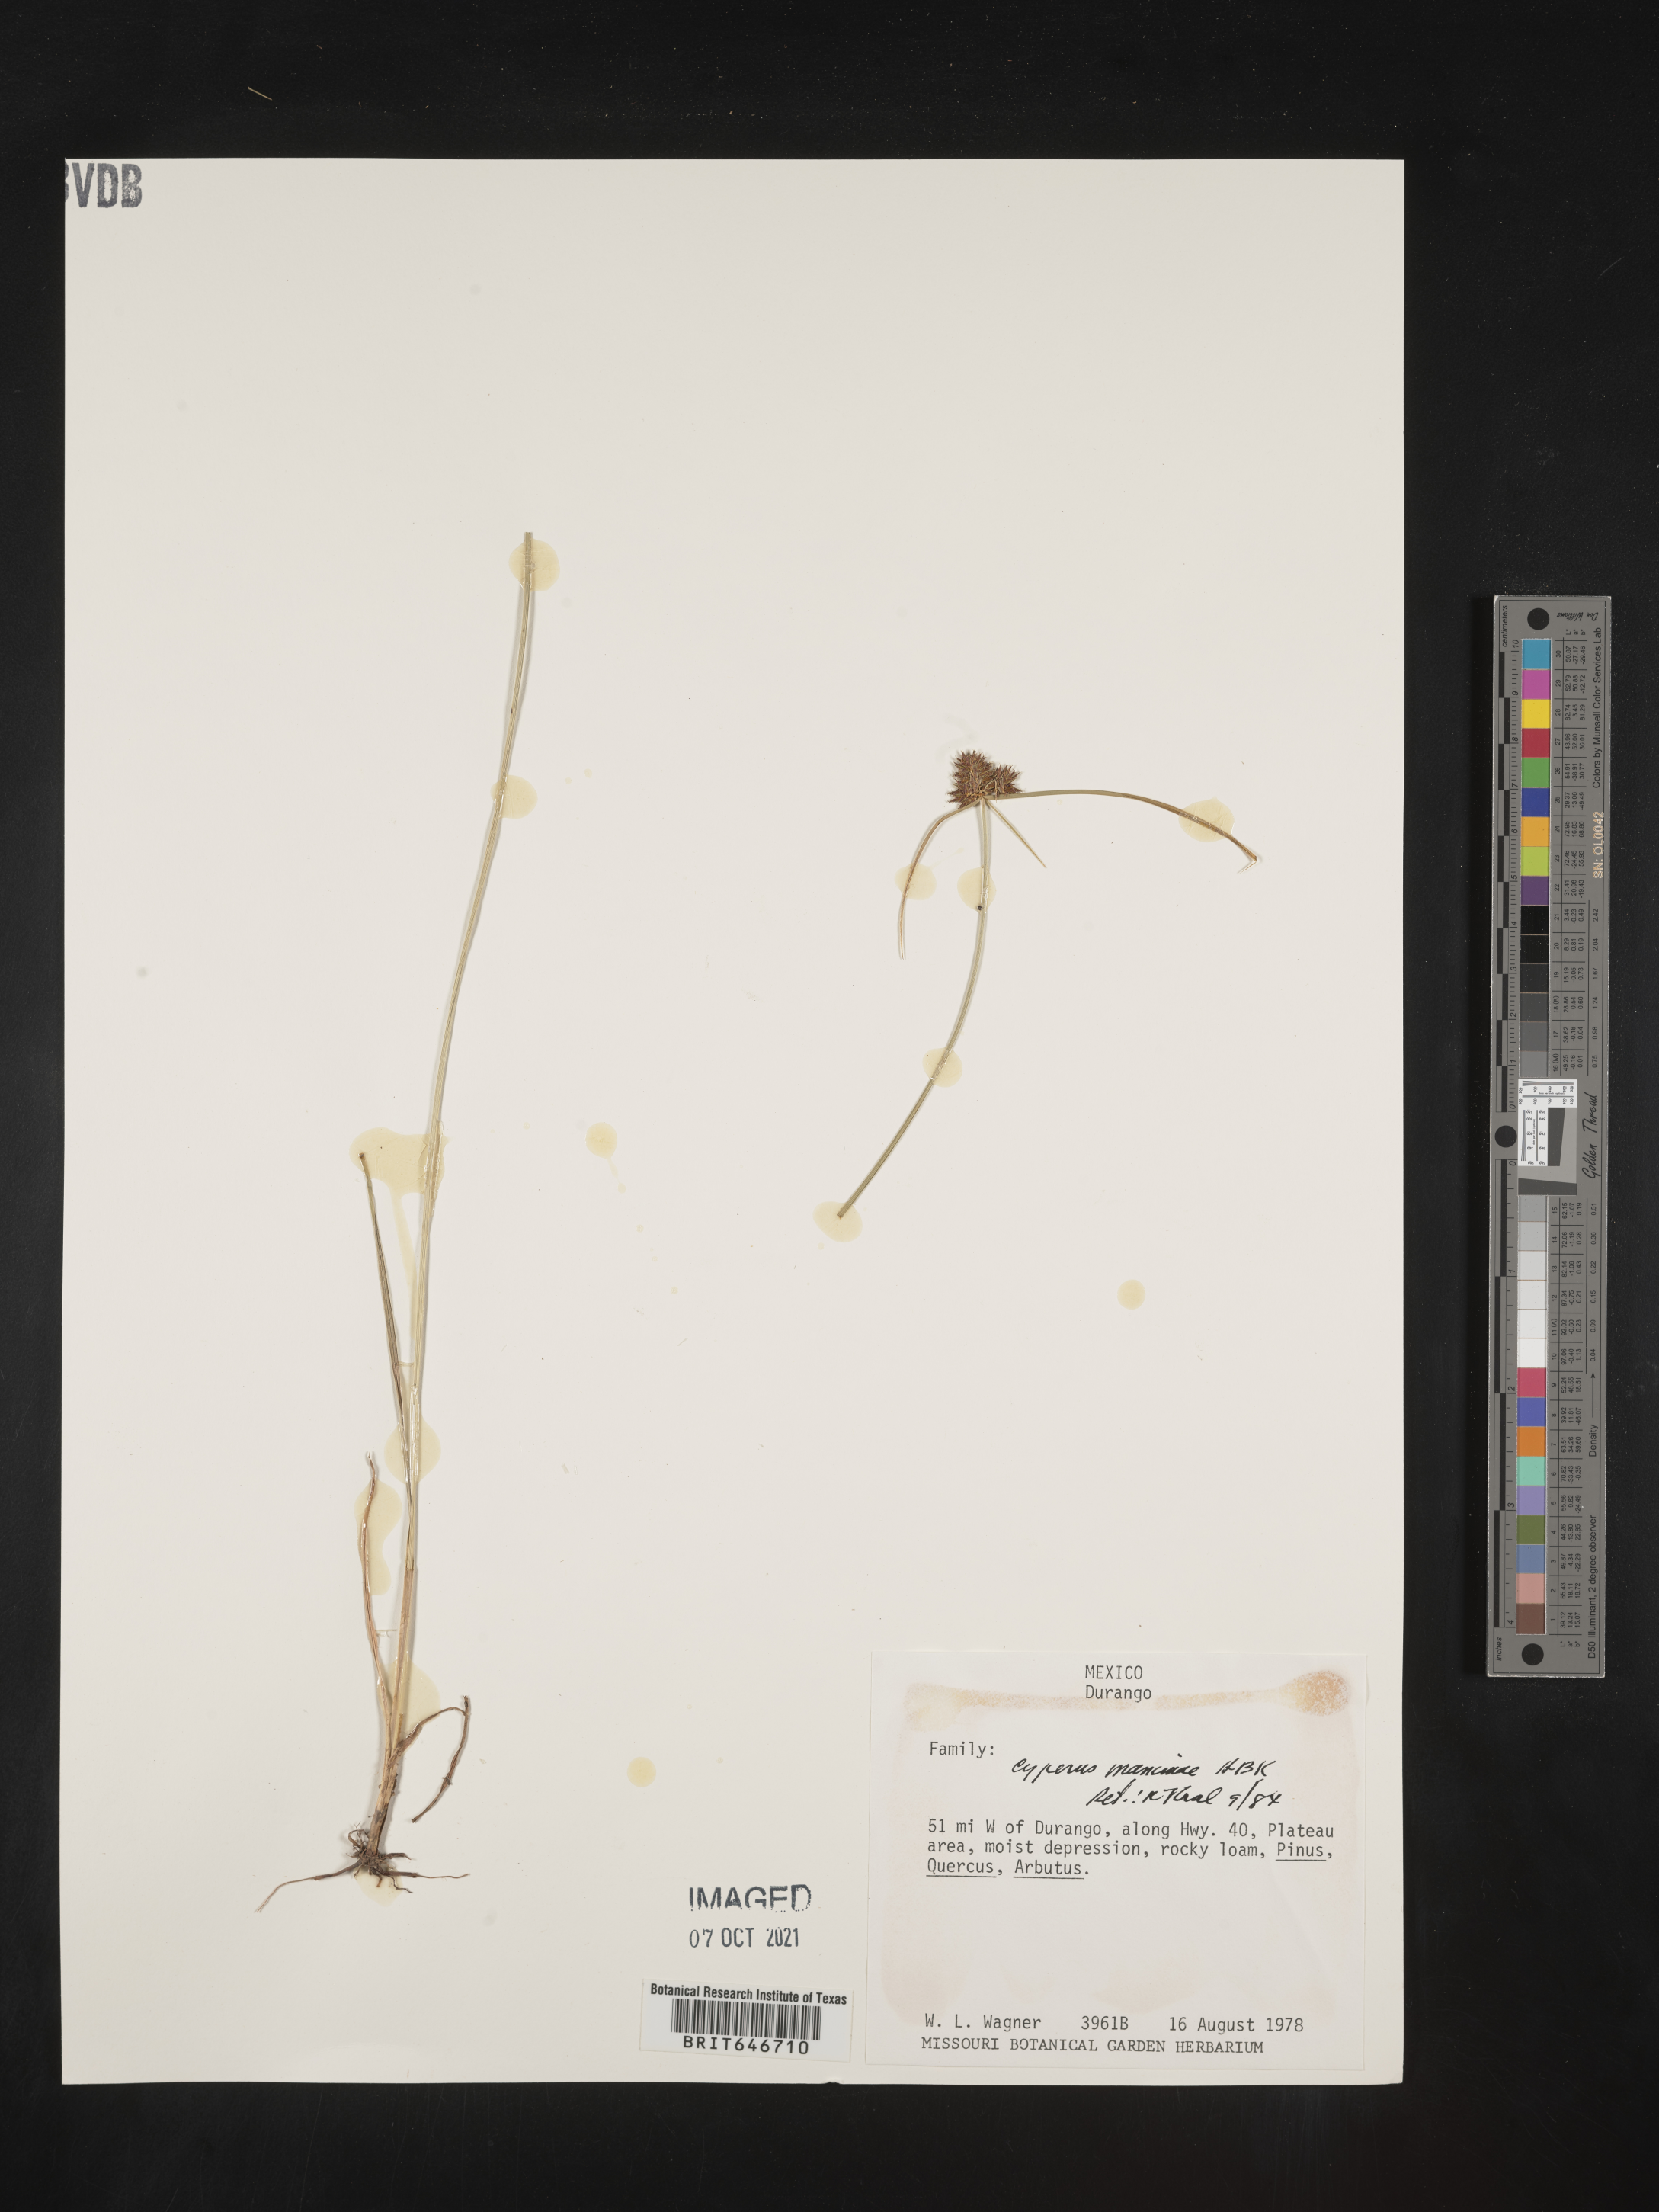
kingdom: Plantae
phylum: Tracheophyta
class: Liliopsida
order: Poales
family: Cyperaceae
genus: Cyperus
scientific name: Cyperus
